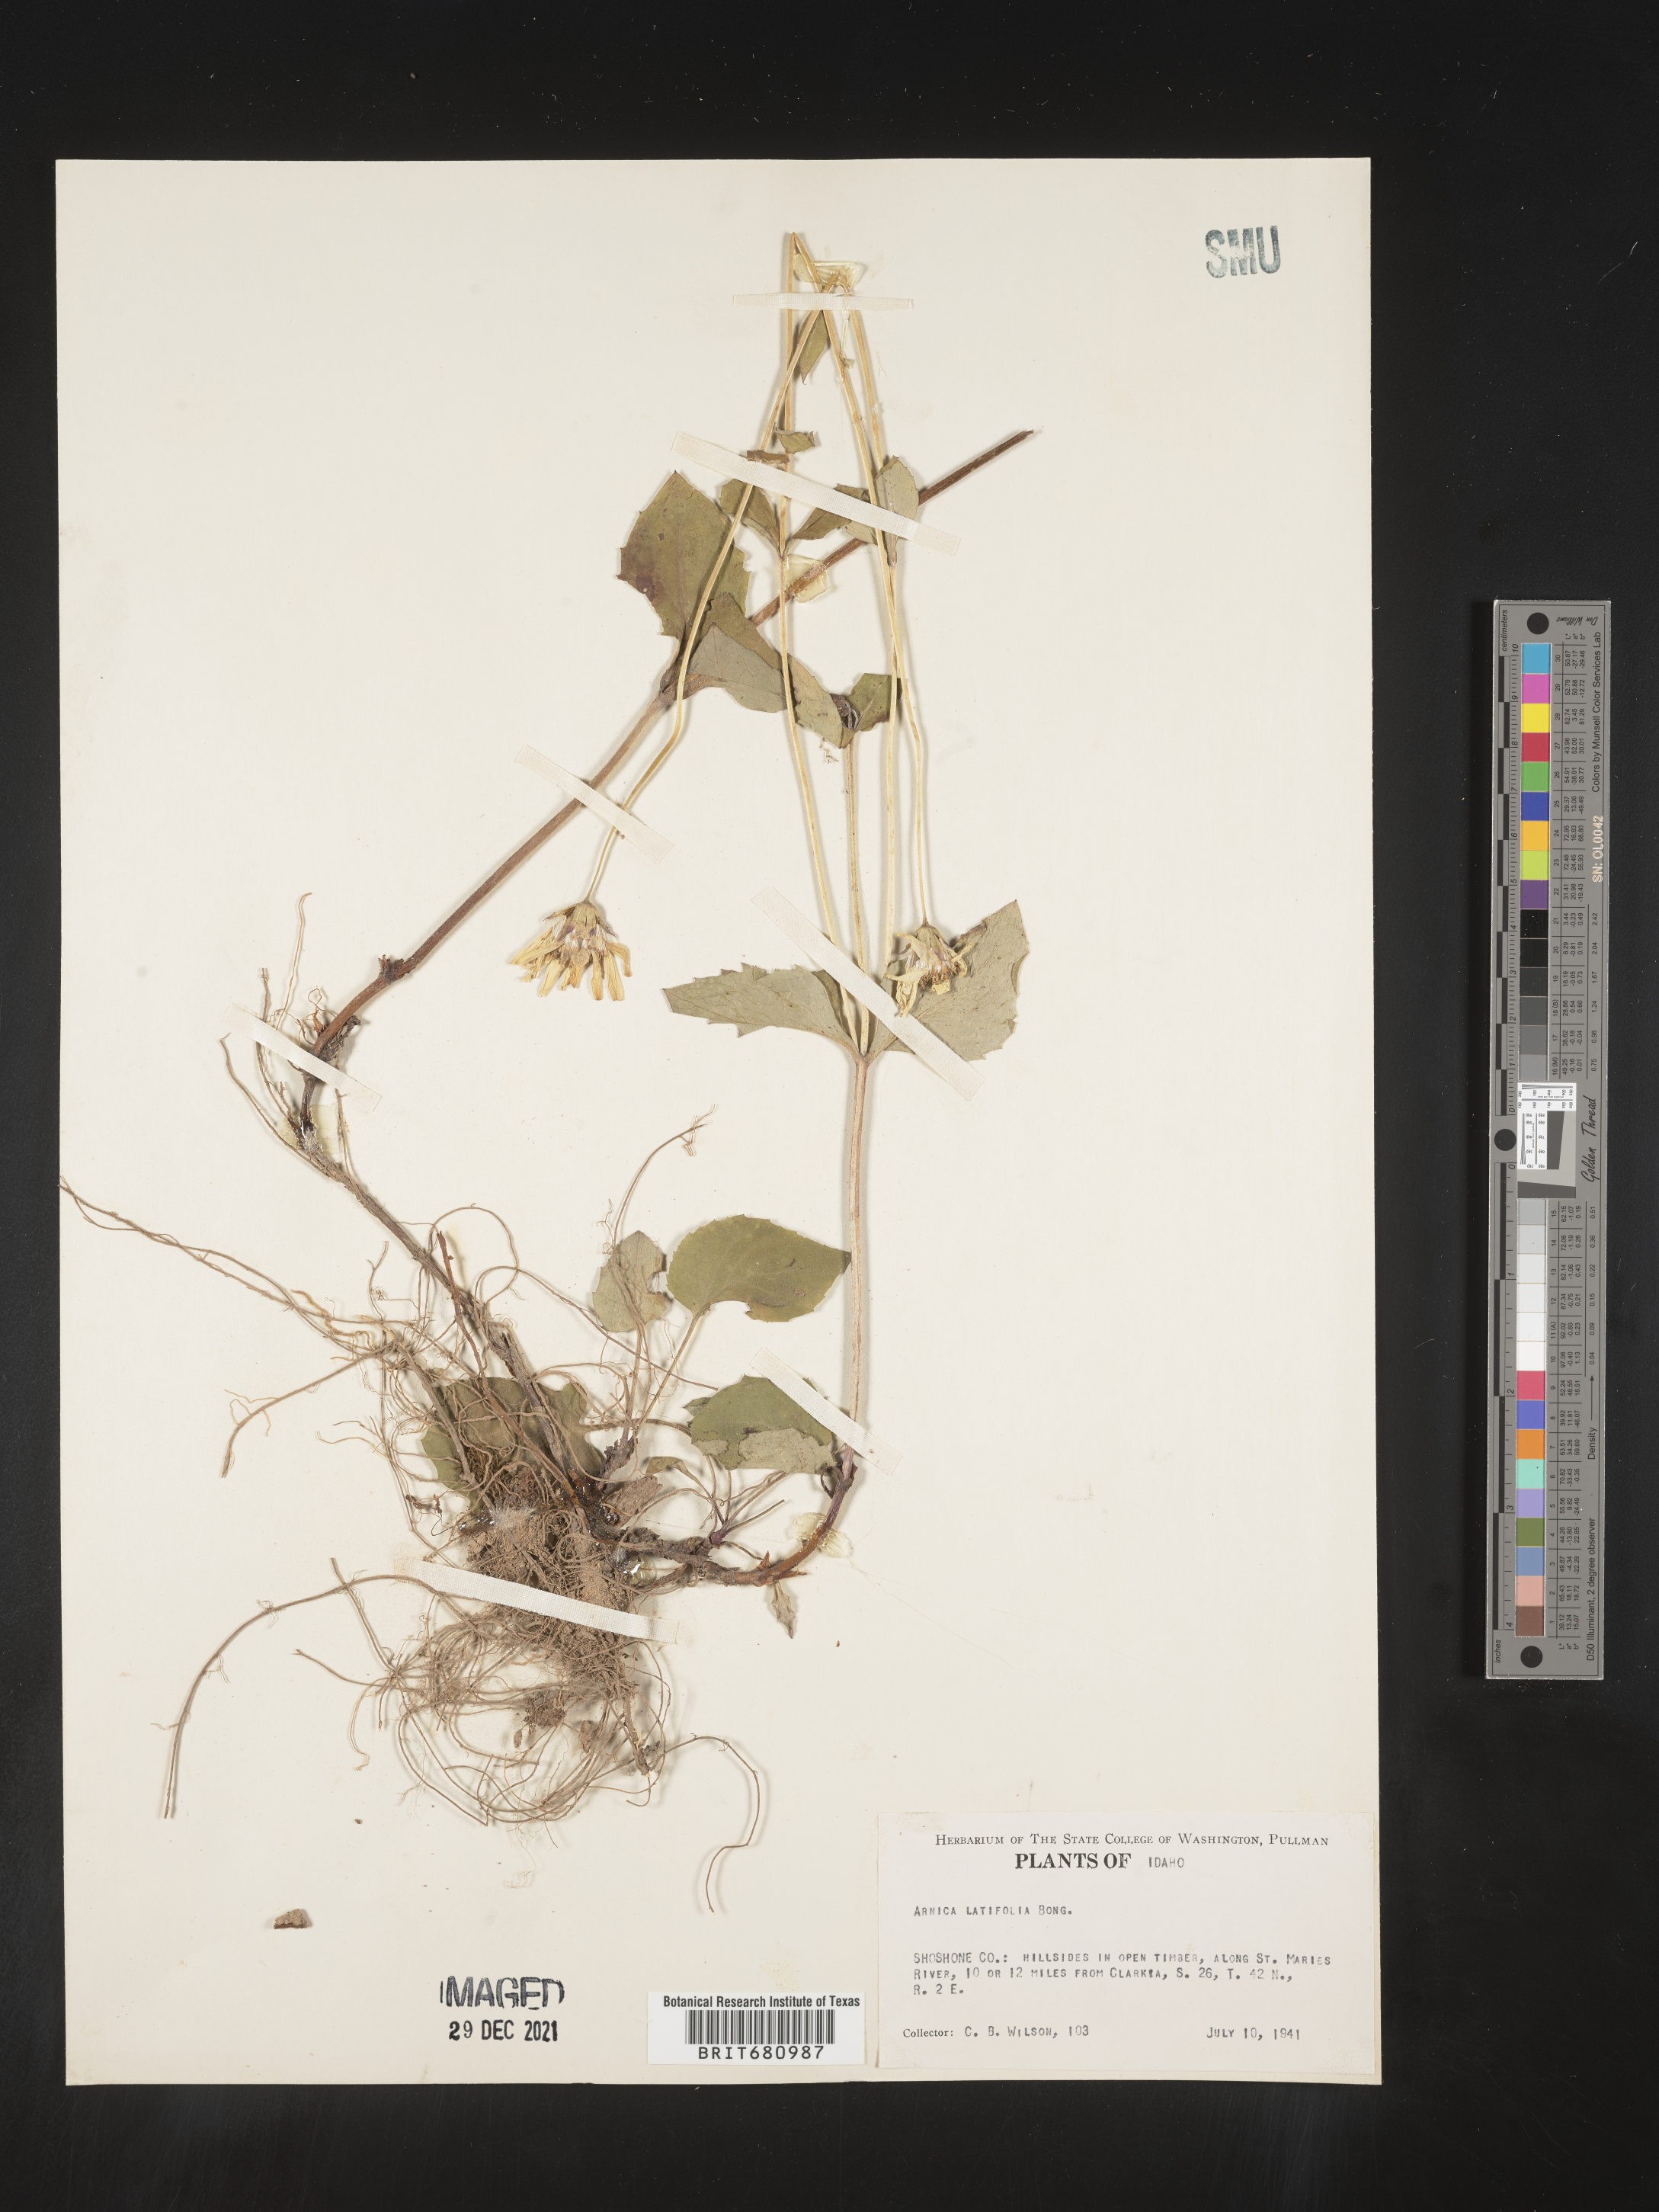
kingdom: Plantae
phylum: Tracheophyta
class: Magnoliopsida
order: Asterales
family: Asteraceae
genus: Arnica
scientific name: Arnica latifolia
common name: Arnica
